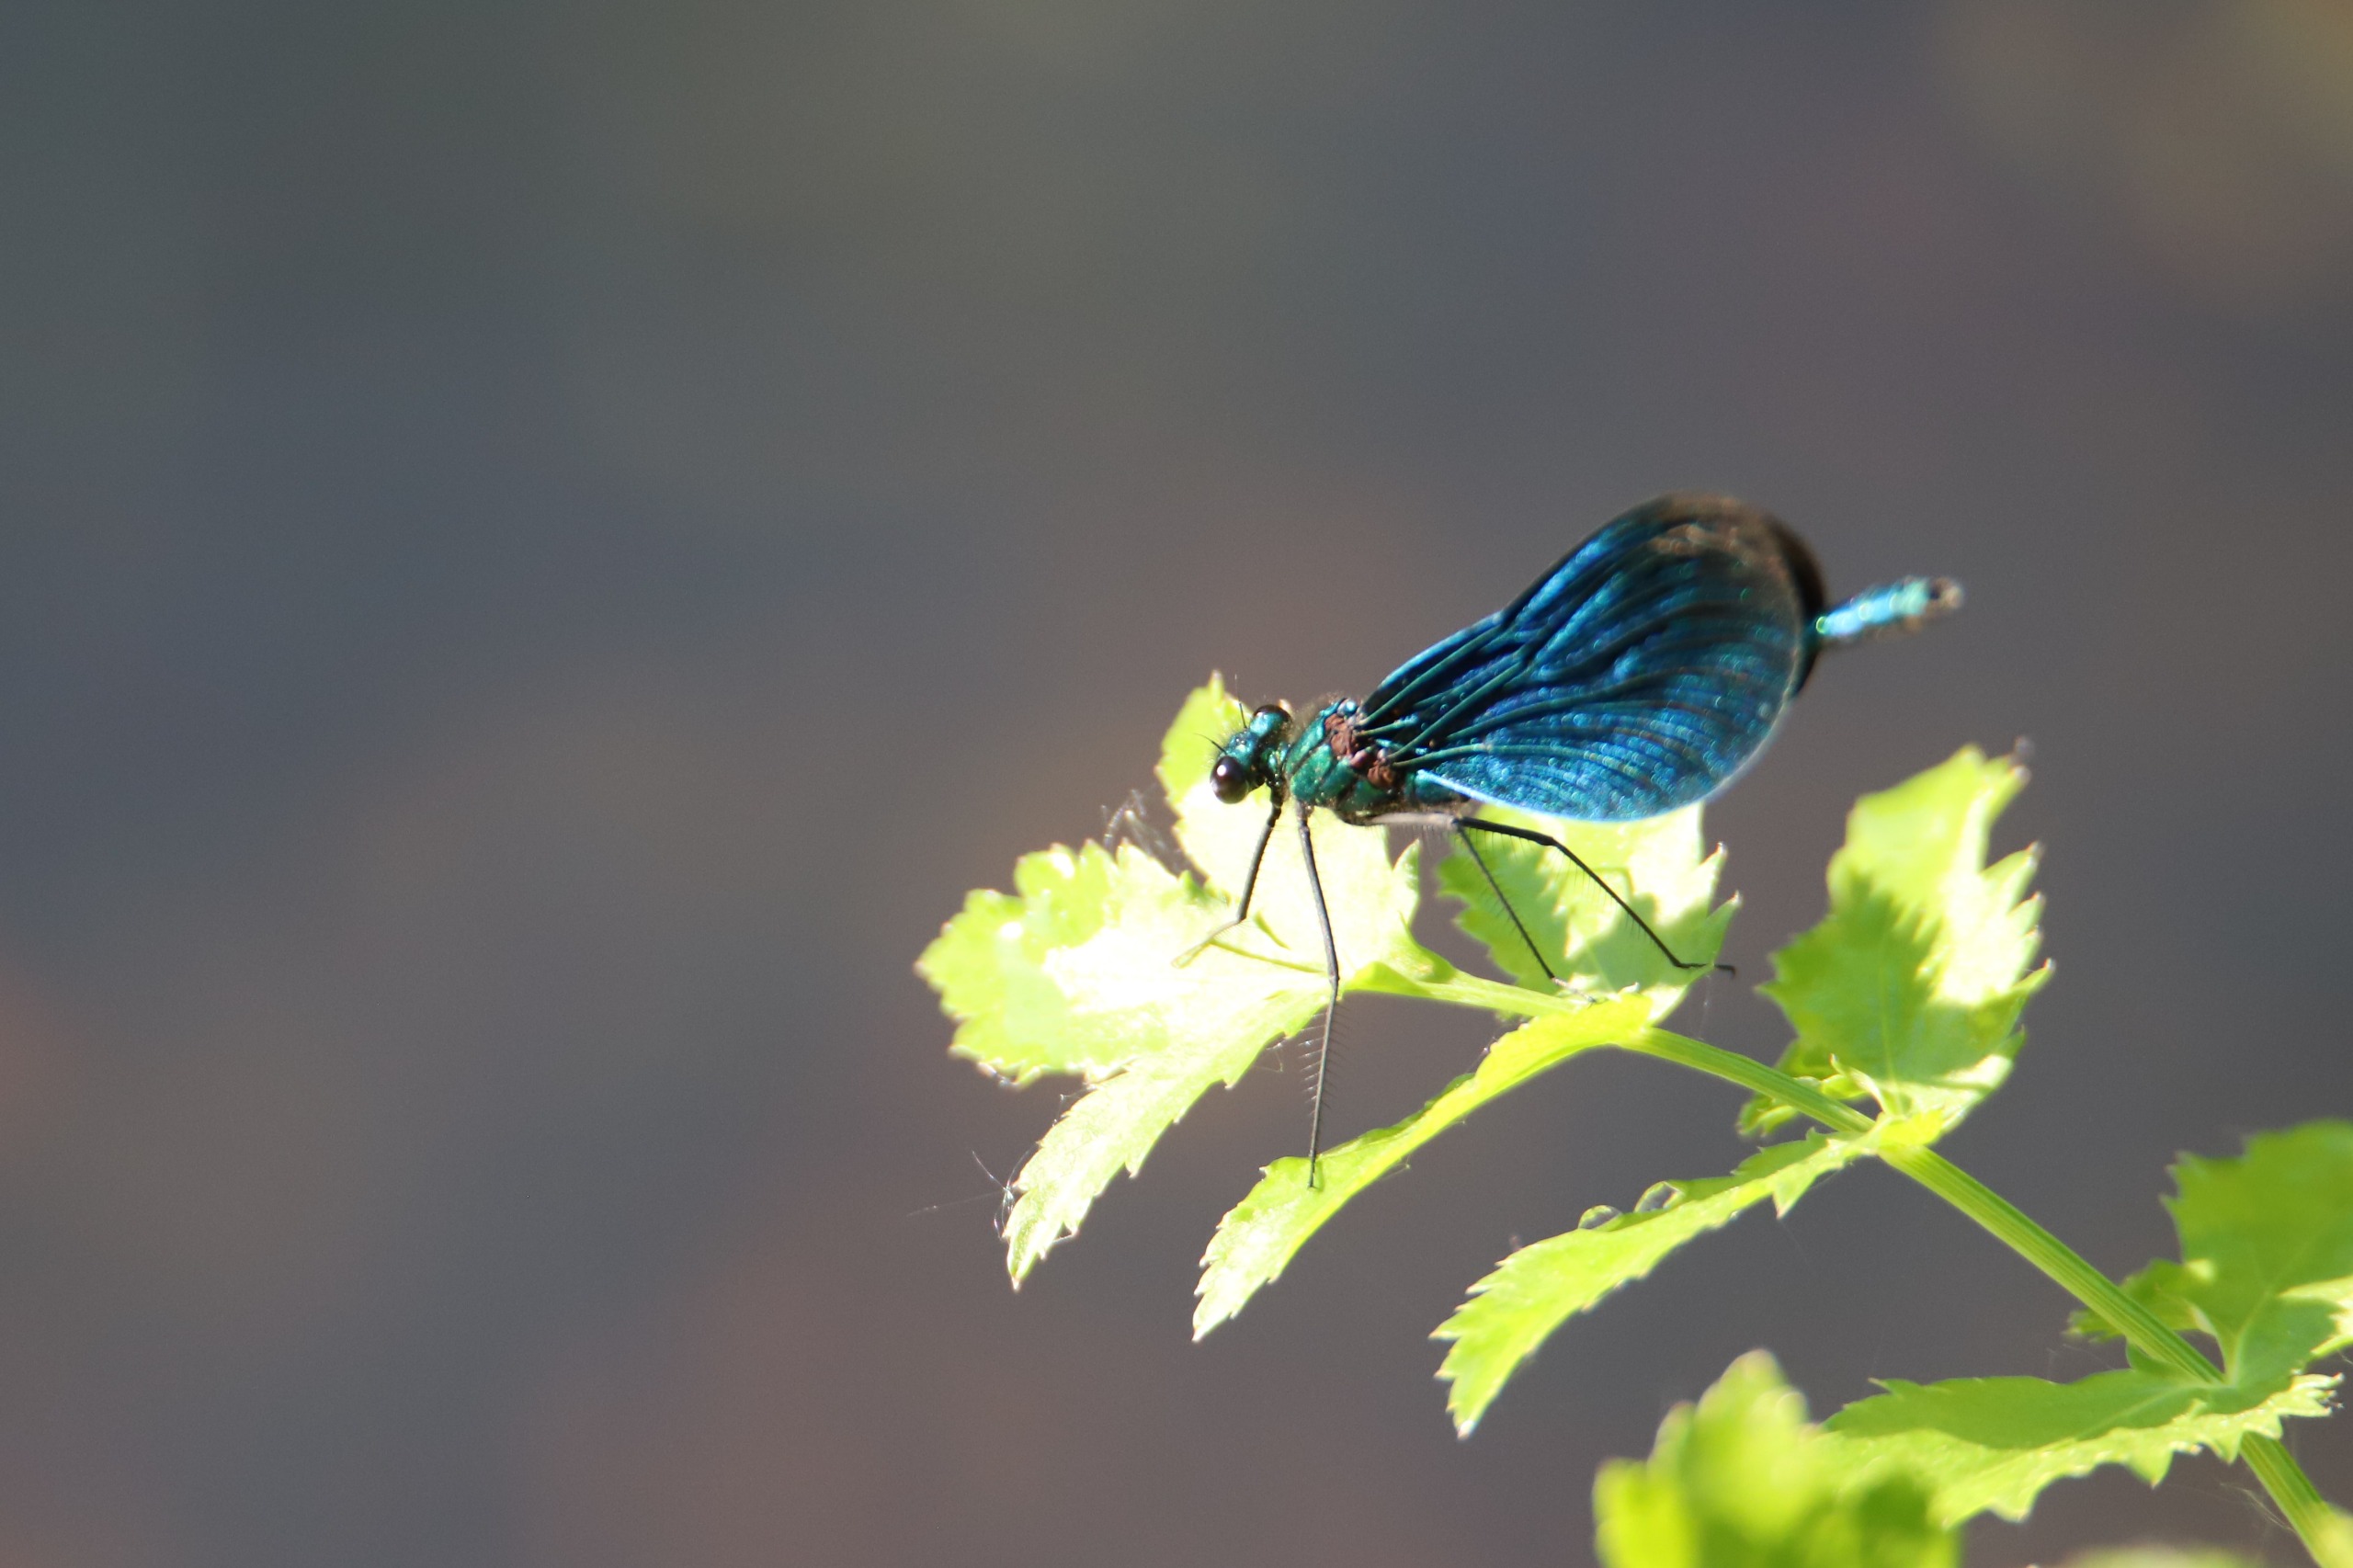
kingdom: Animalia
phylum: Arthropoda
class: Insecta
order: Odonata
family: Calopterygidae
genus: Calopteryx
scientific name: Calopteryx virgo
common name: Blåvinget pragtvandnymfe
